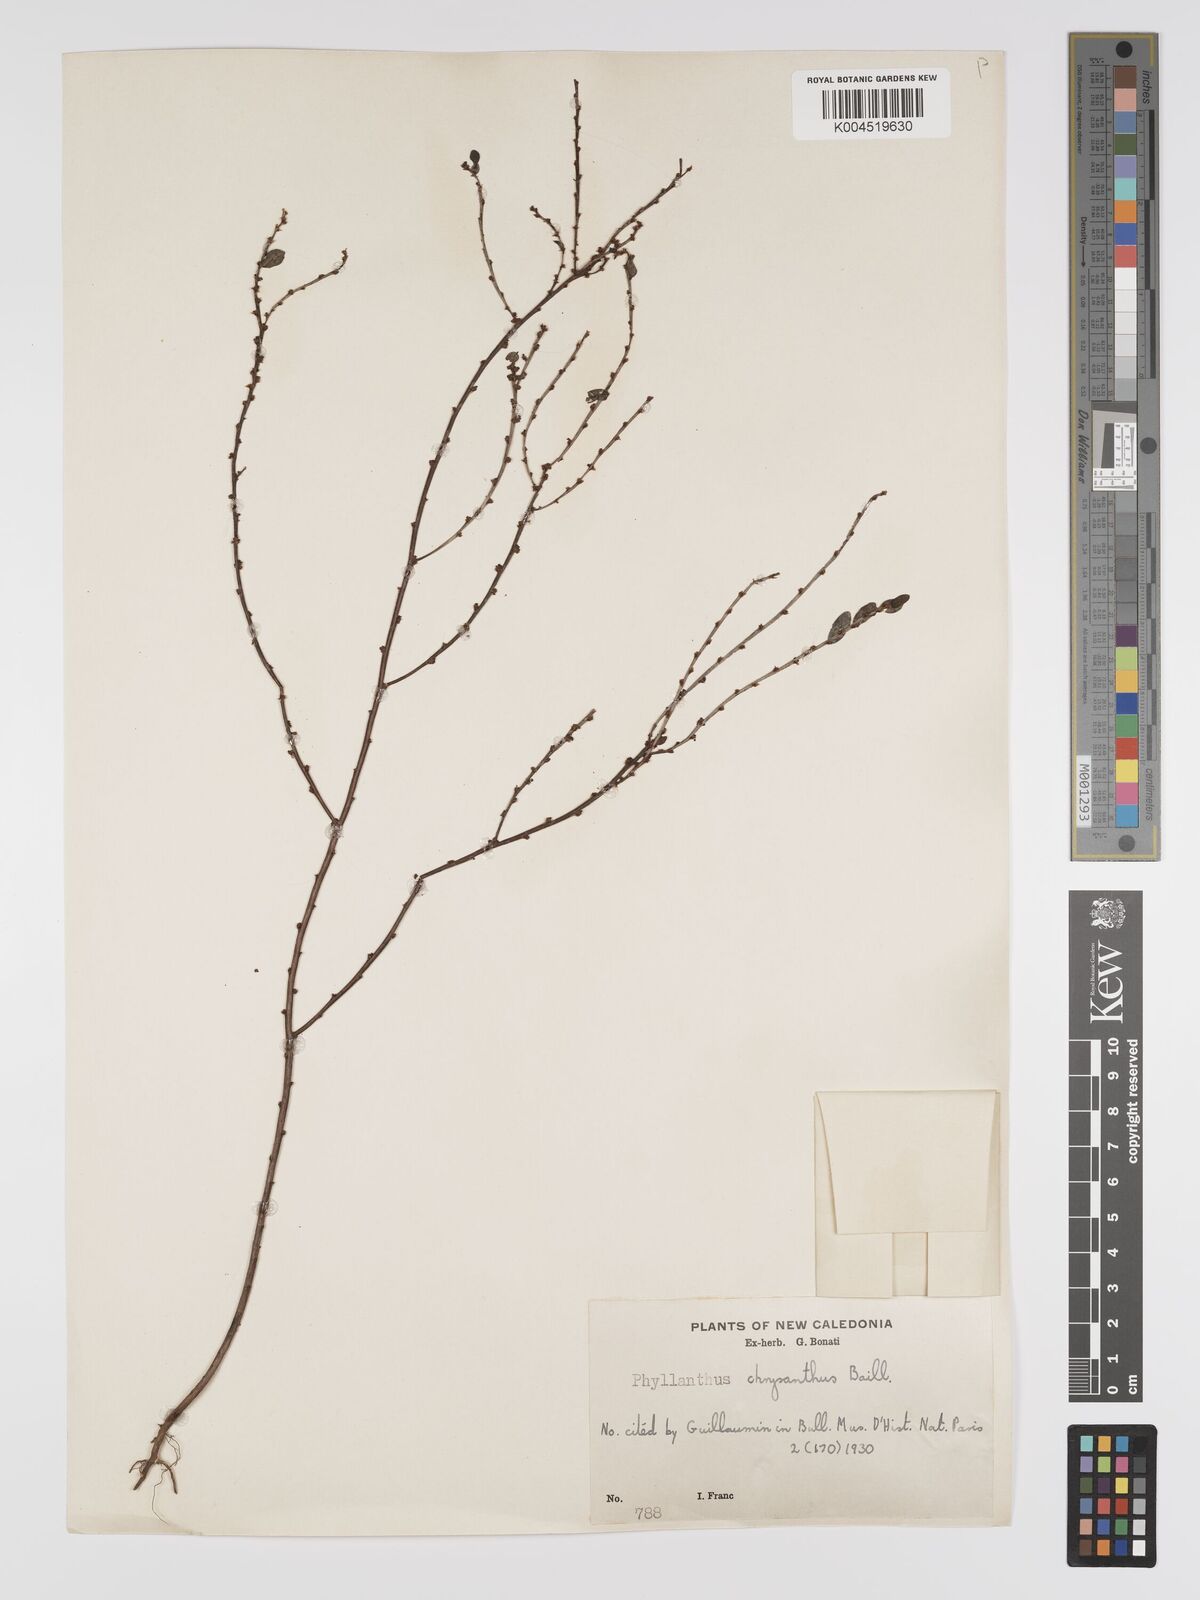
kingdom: Plantae
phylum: Tracheophyta
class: Magnoliopsida
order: Malpighiales
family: Phyllanthaceae
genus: Phyllanthus
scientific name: Phyllanthus chrysanthus
